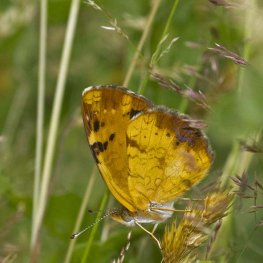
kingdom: Animalia
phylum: Arthropoda
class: Insecta
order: Lepidoptera
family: Nymphalidae
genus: Phyciodes
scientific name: Phyciodes tharos
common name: Northern Crescent
